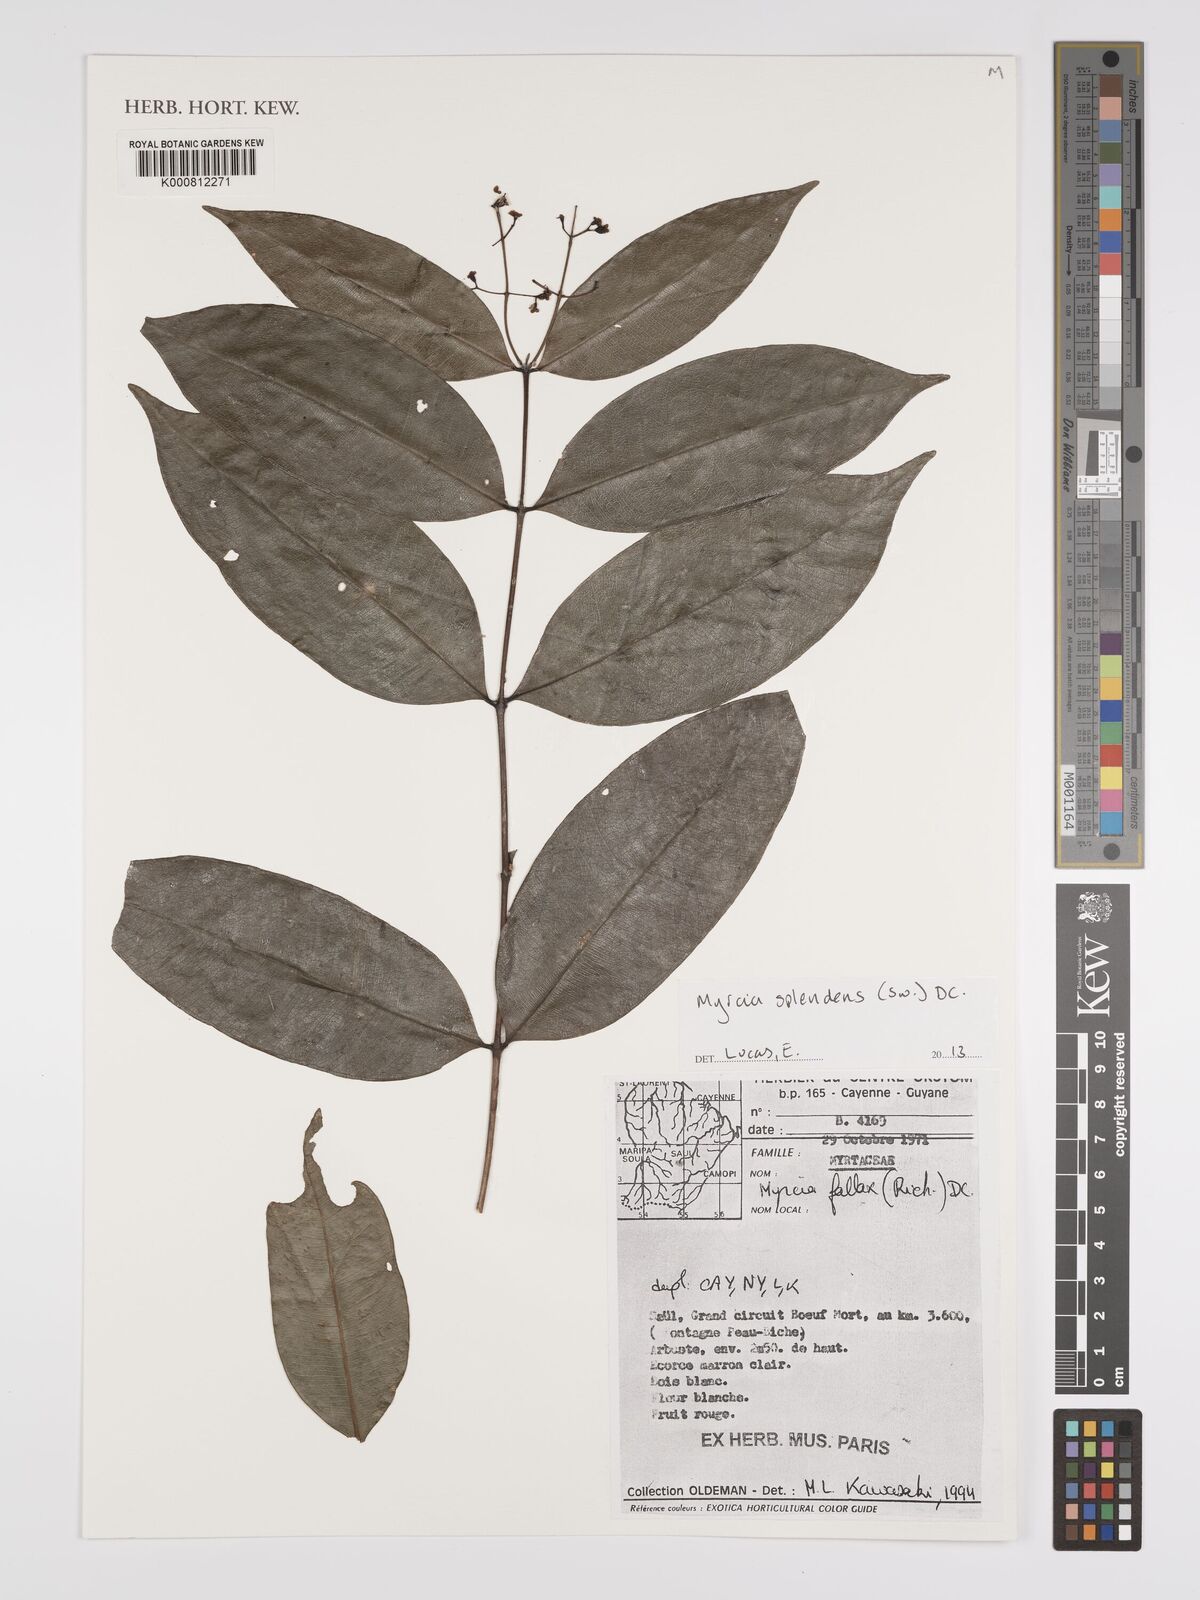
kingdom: Plantae
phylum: Tracheophyta
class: Magnoliopsida
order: Myrtales
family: Myrtaceae
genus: Myrcia
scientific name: Myrcia splendens
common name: Surinam cherry
